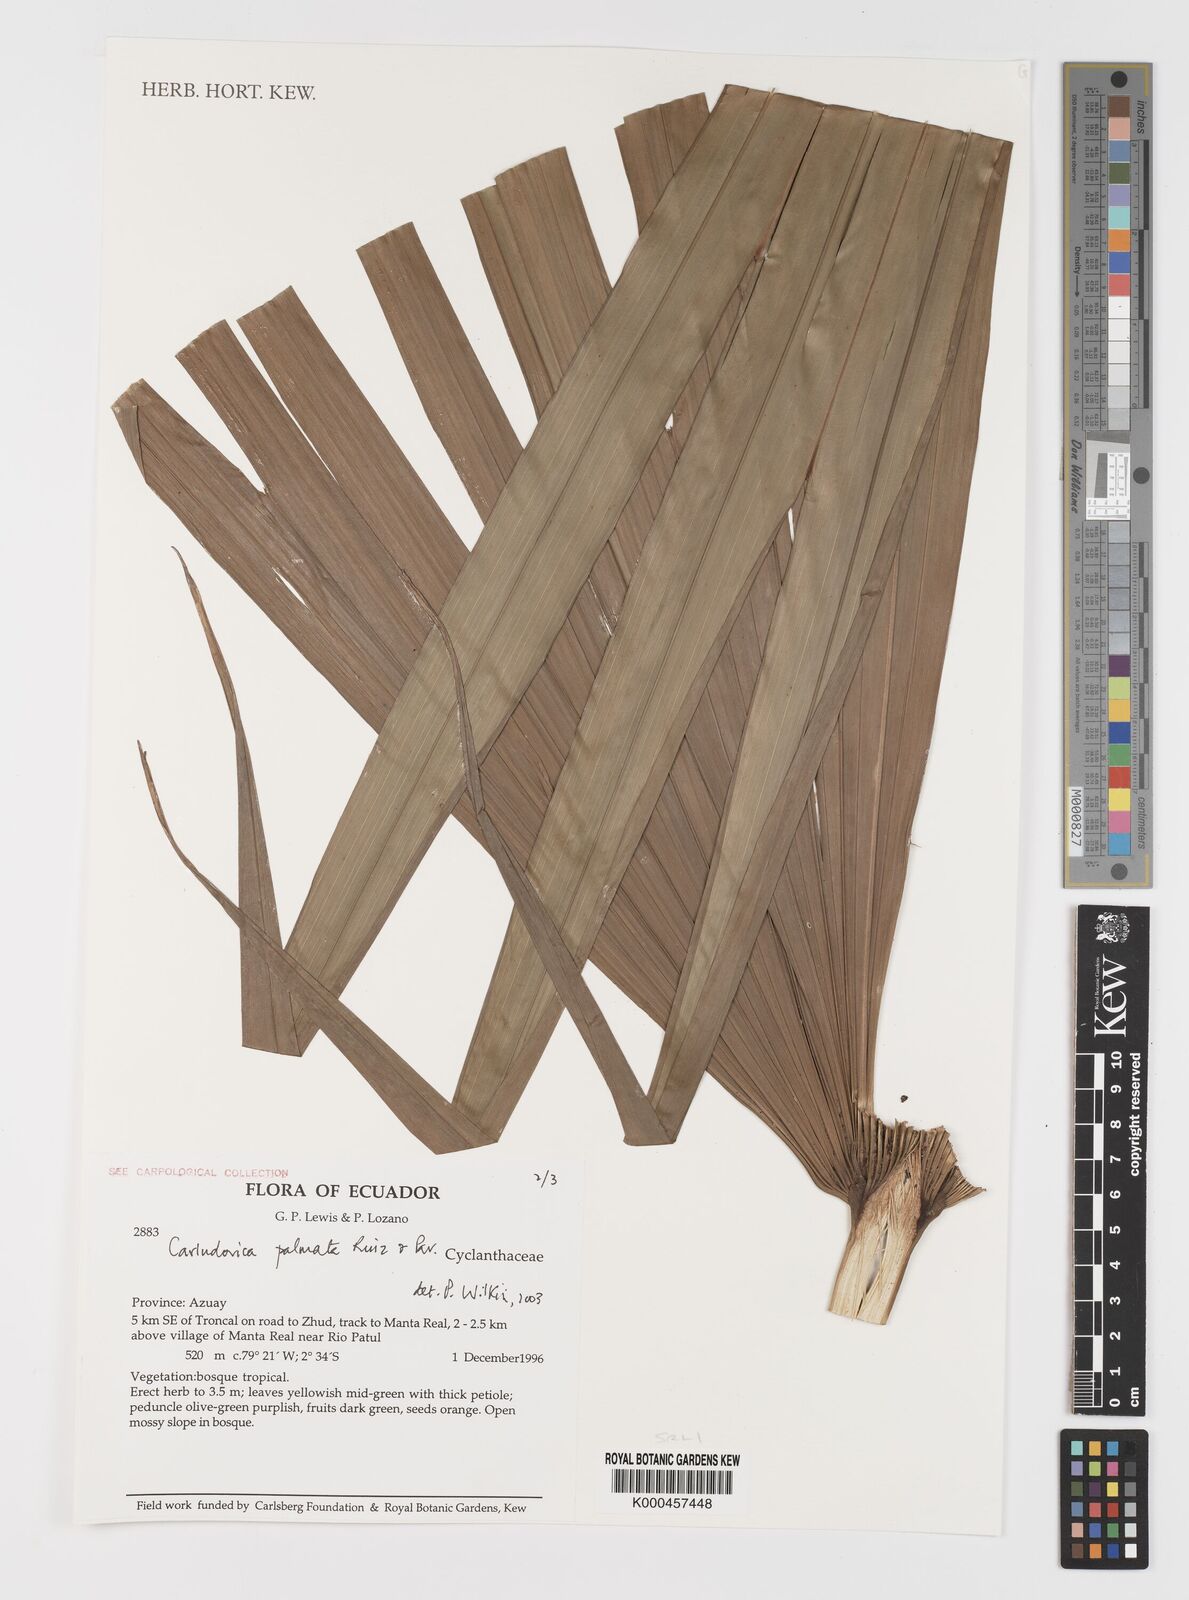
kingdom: Plantae
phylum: Tracheophyta
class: Liliopsida
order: Pandanales
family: Cyclanthaceae
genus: Carludovica
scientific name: Carludovica palmata
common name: Panama hat plant
